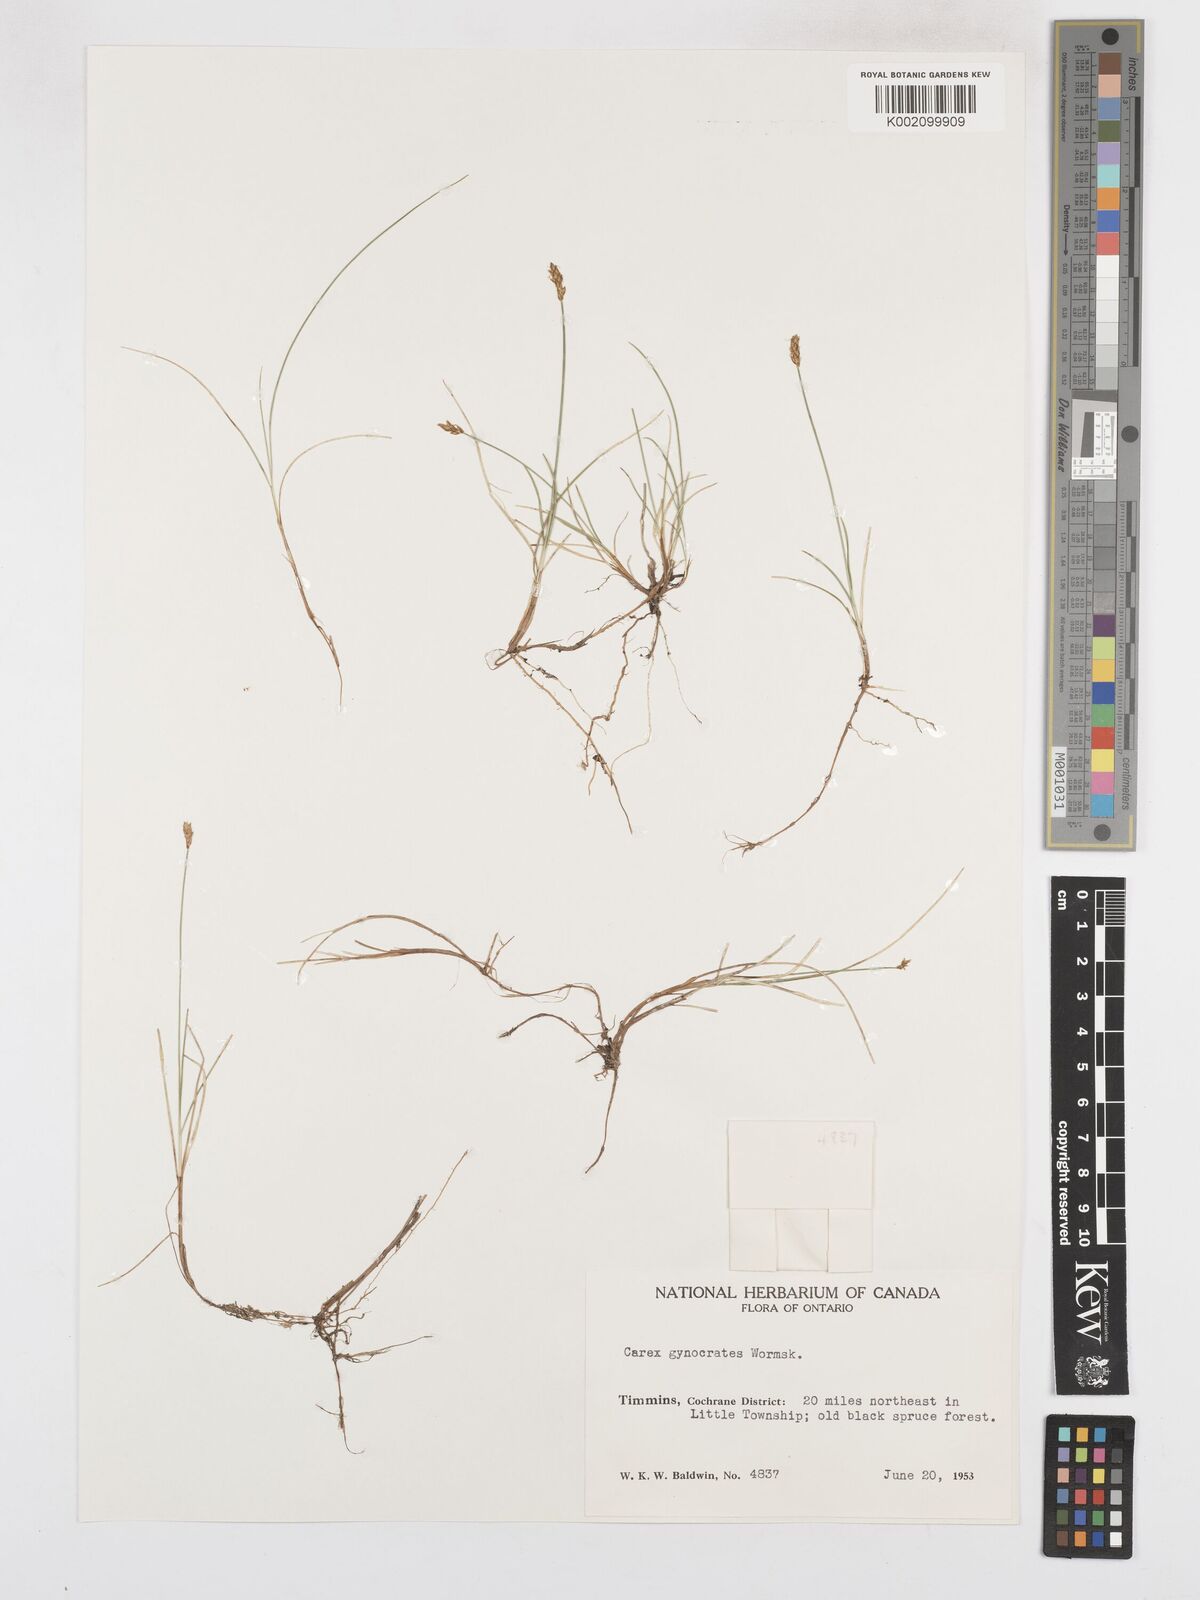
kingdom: Plantae
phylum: Tracheophyta
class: Liliopsida
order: Poales
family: Cyperaceae
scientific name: Cyperaceae
